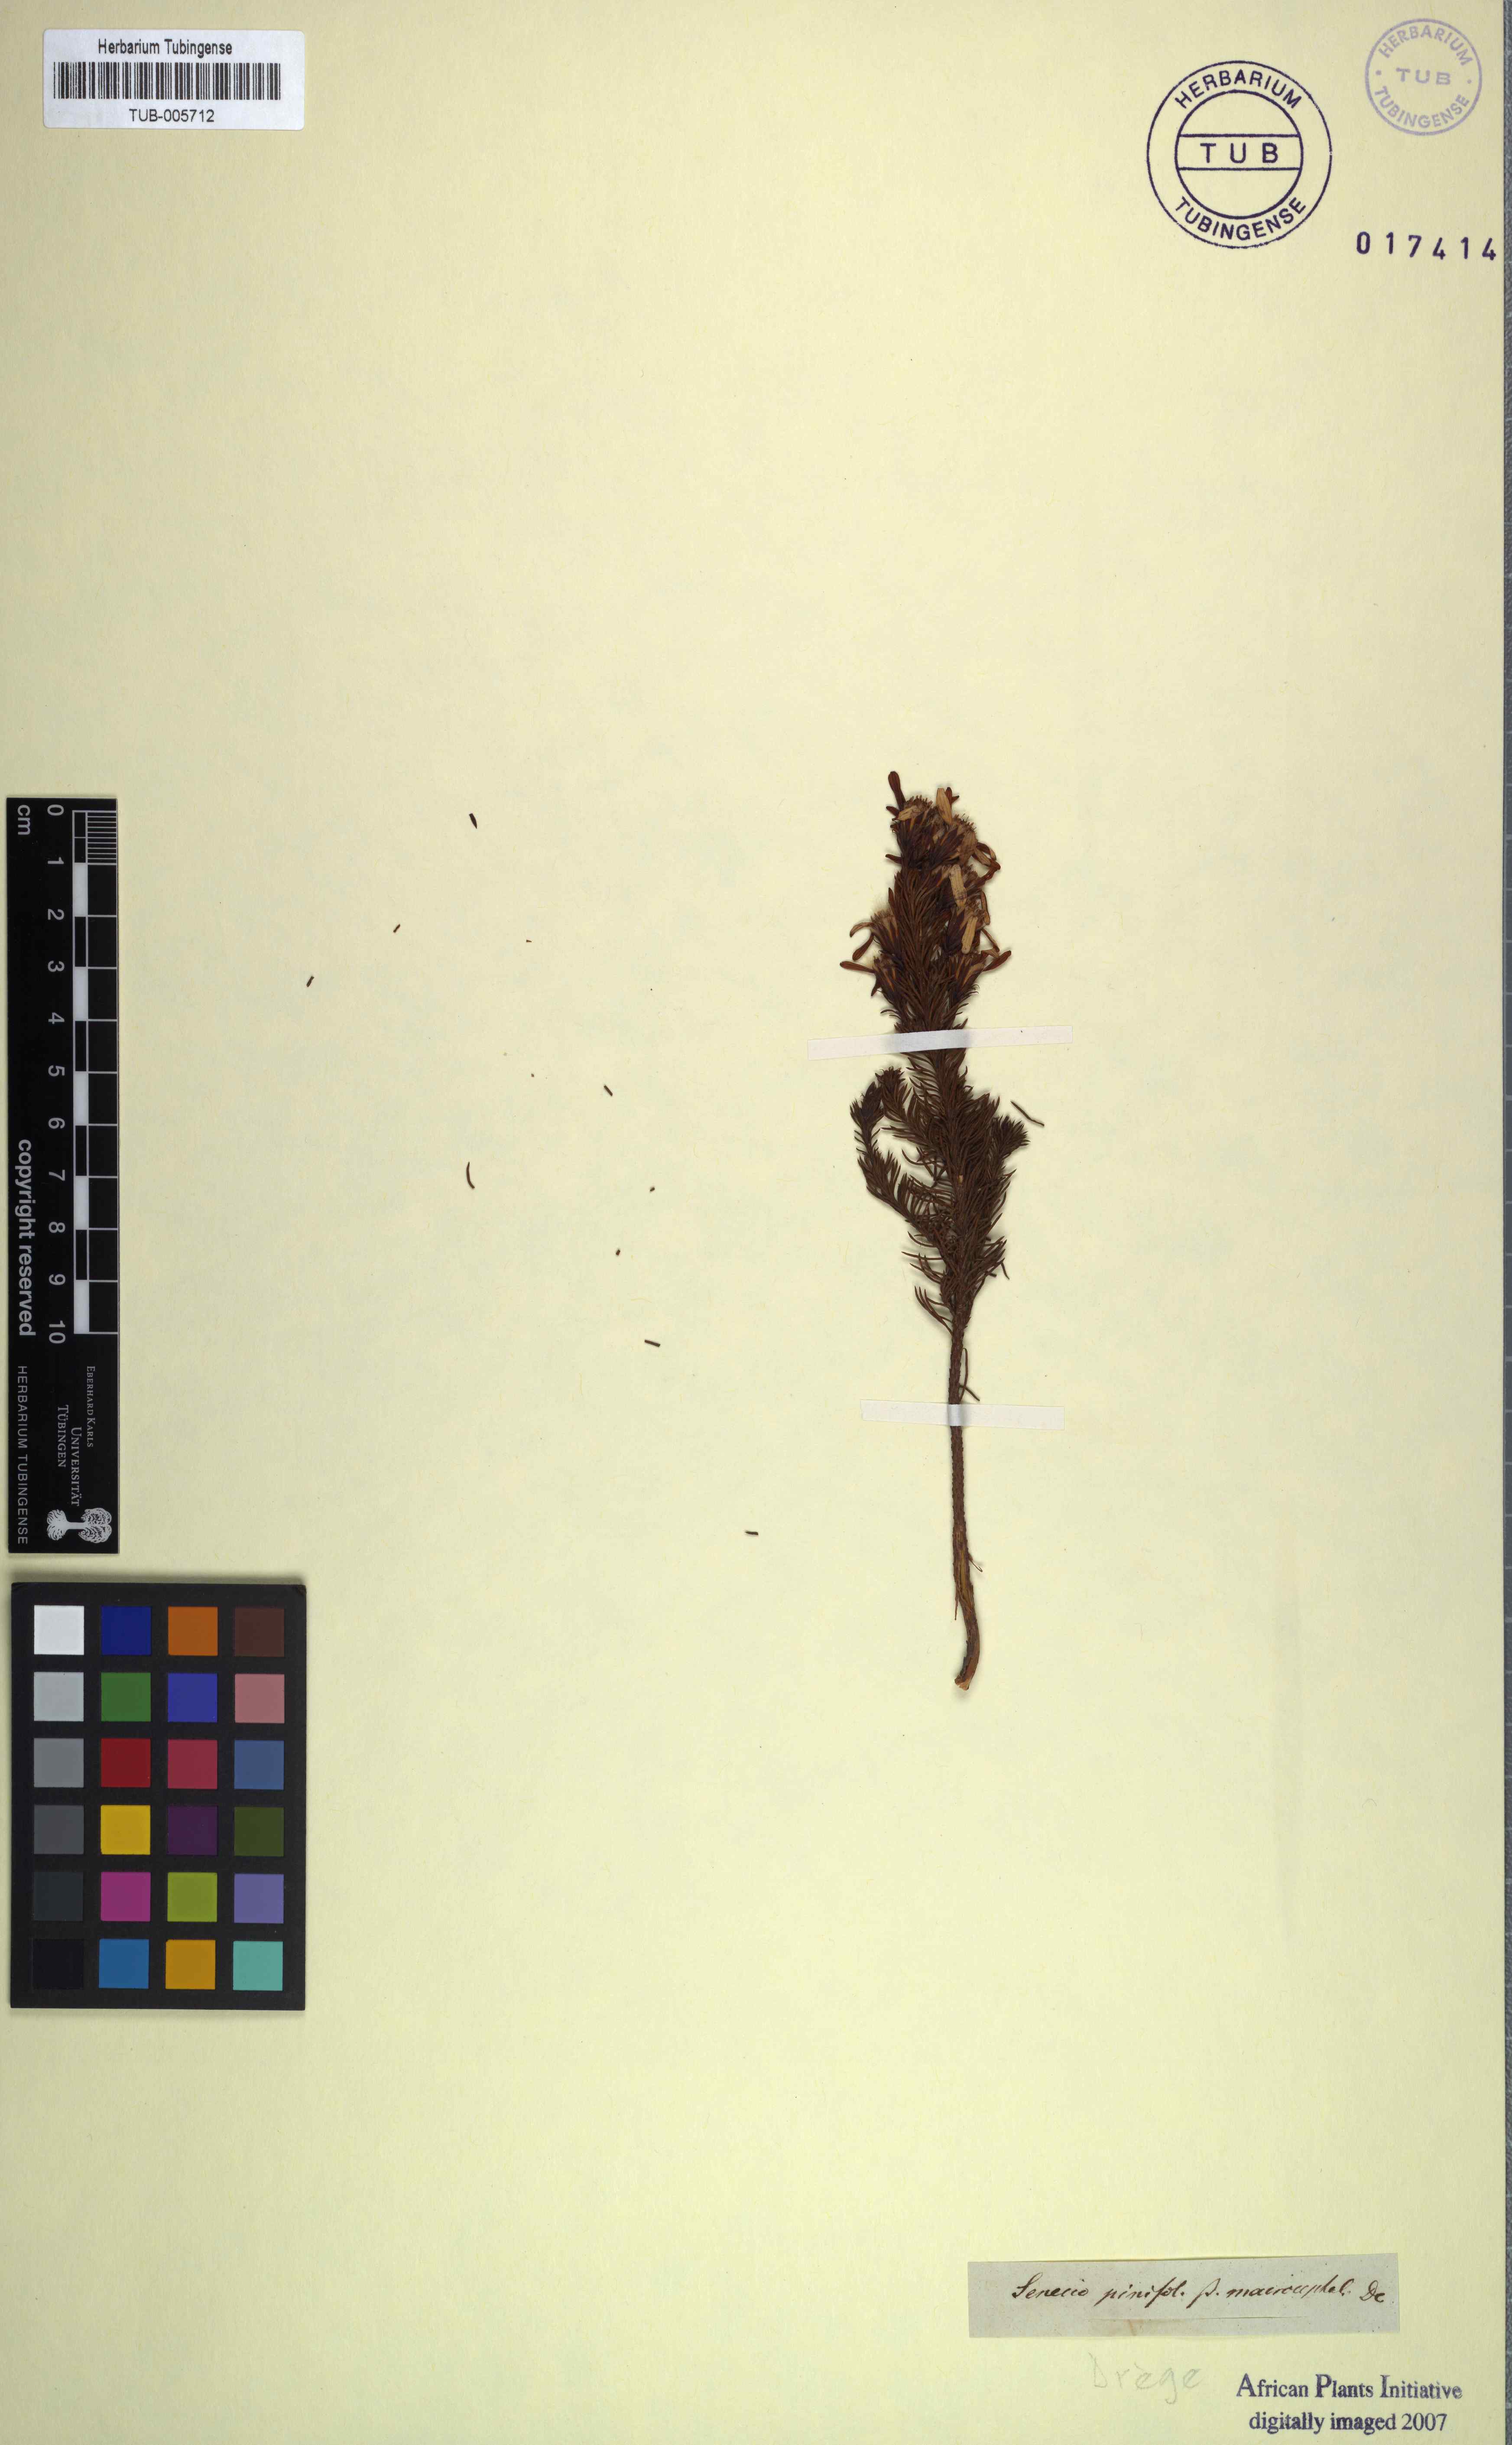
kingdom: Plantae
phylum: Tracheophyta
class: Magnoliopsida
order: Asterales
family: Asteraceae
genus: Senecio
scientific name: Senecio pinifolius
